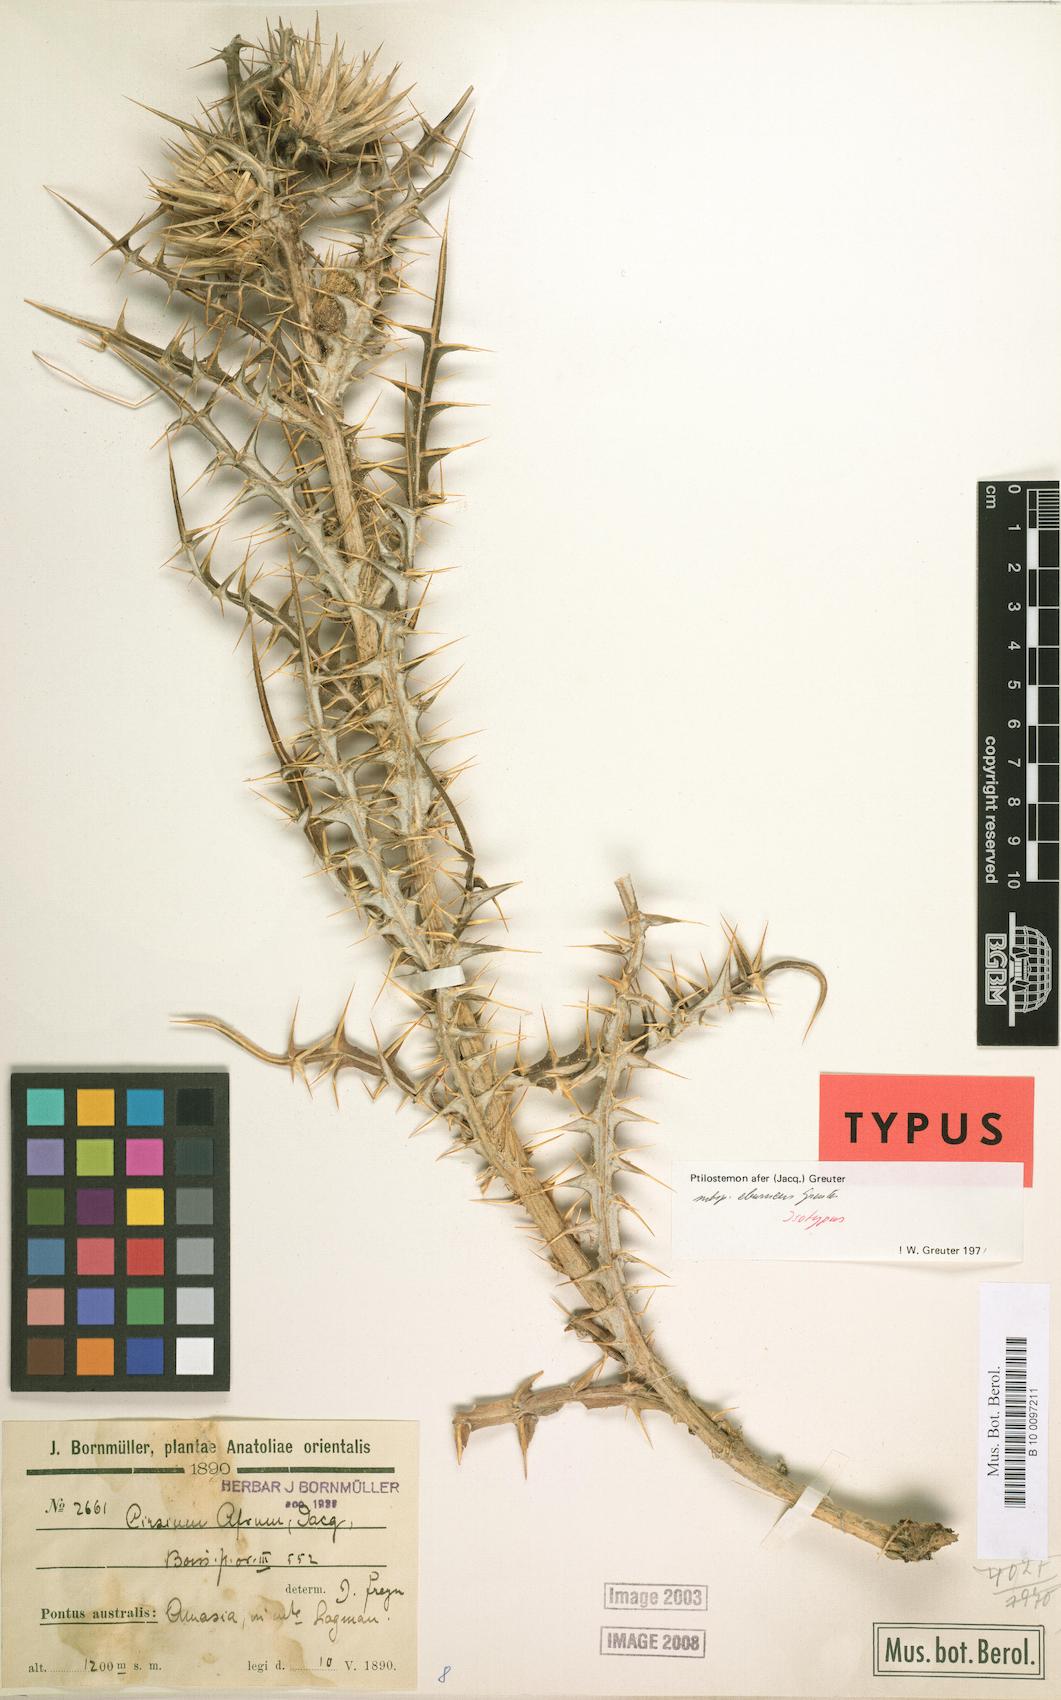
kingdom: Plantae
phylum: Tracheophyta
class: Magnoliopsida
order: Asterales
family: Asteraceae
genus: Ptilostemon
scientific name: Ptilostemon afer
